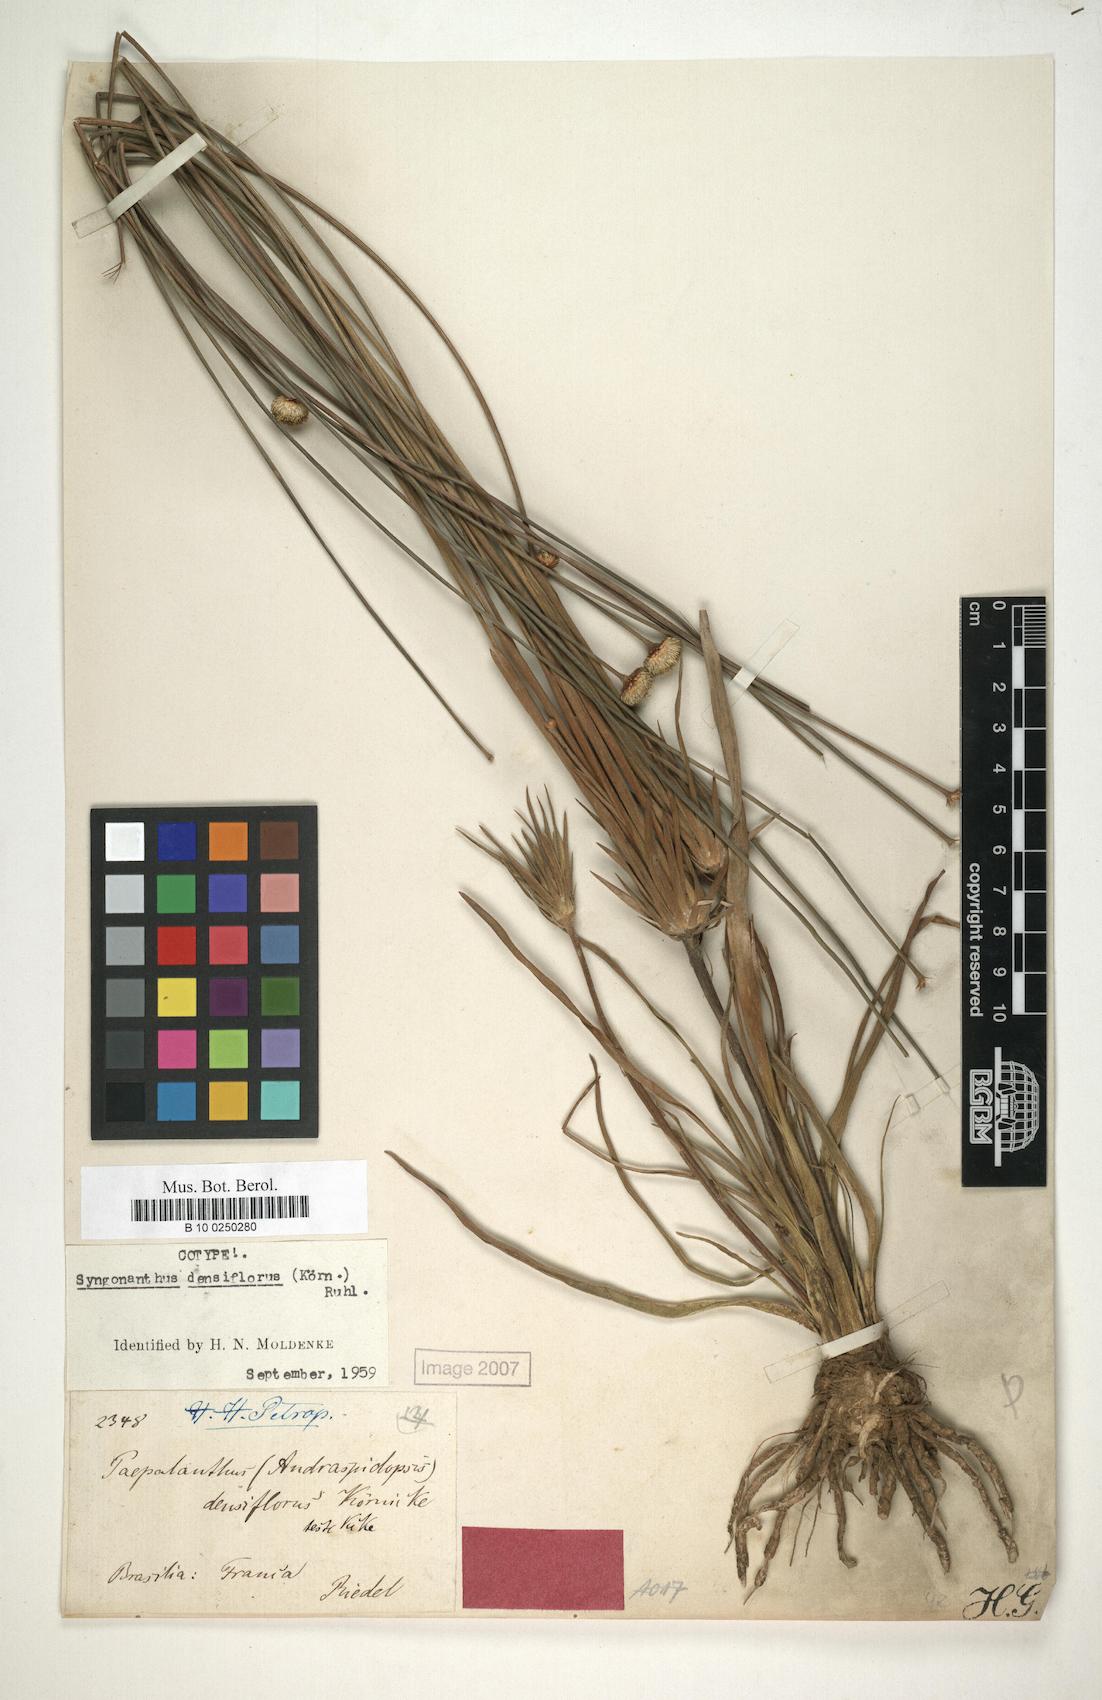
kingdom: Plantae
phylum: Tracheophyta
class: Liliopsida
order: Poales
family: Eriocaulaceae
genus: Syngonanthus
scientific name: Syngonanthus densiflorus
